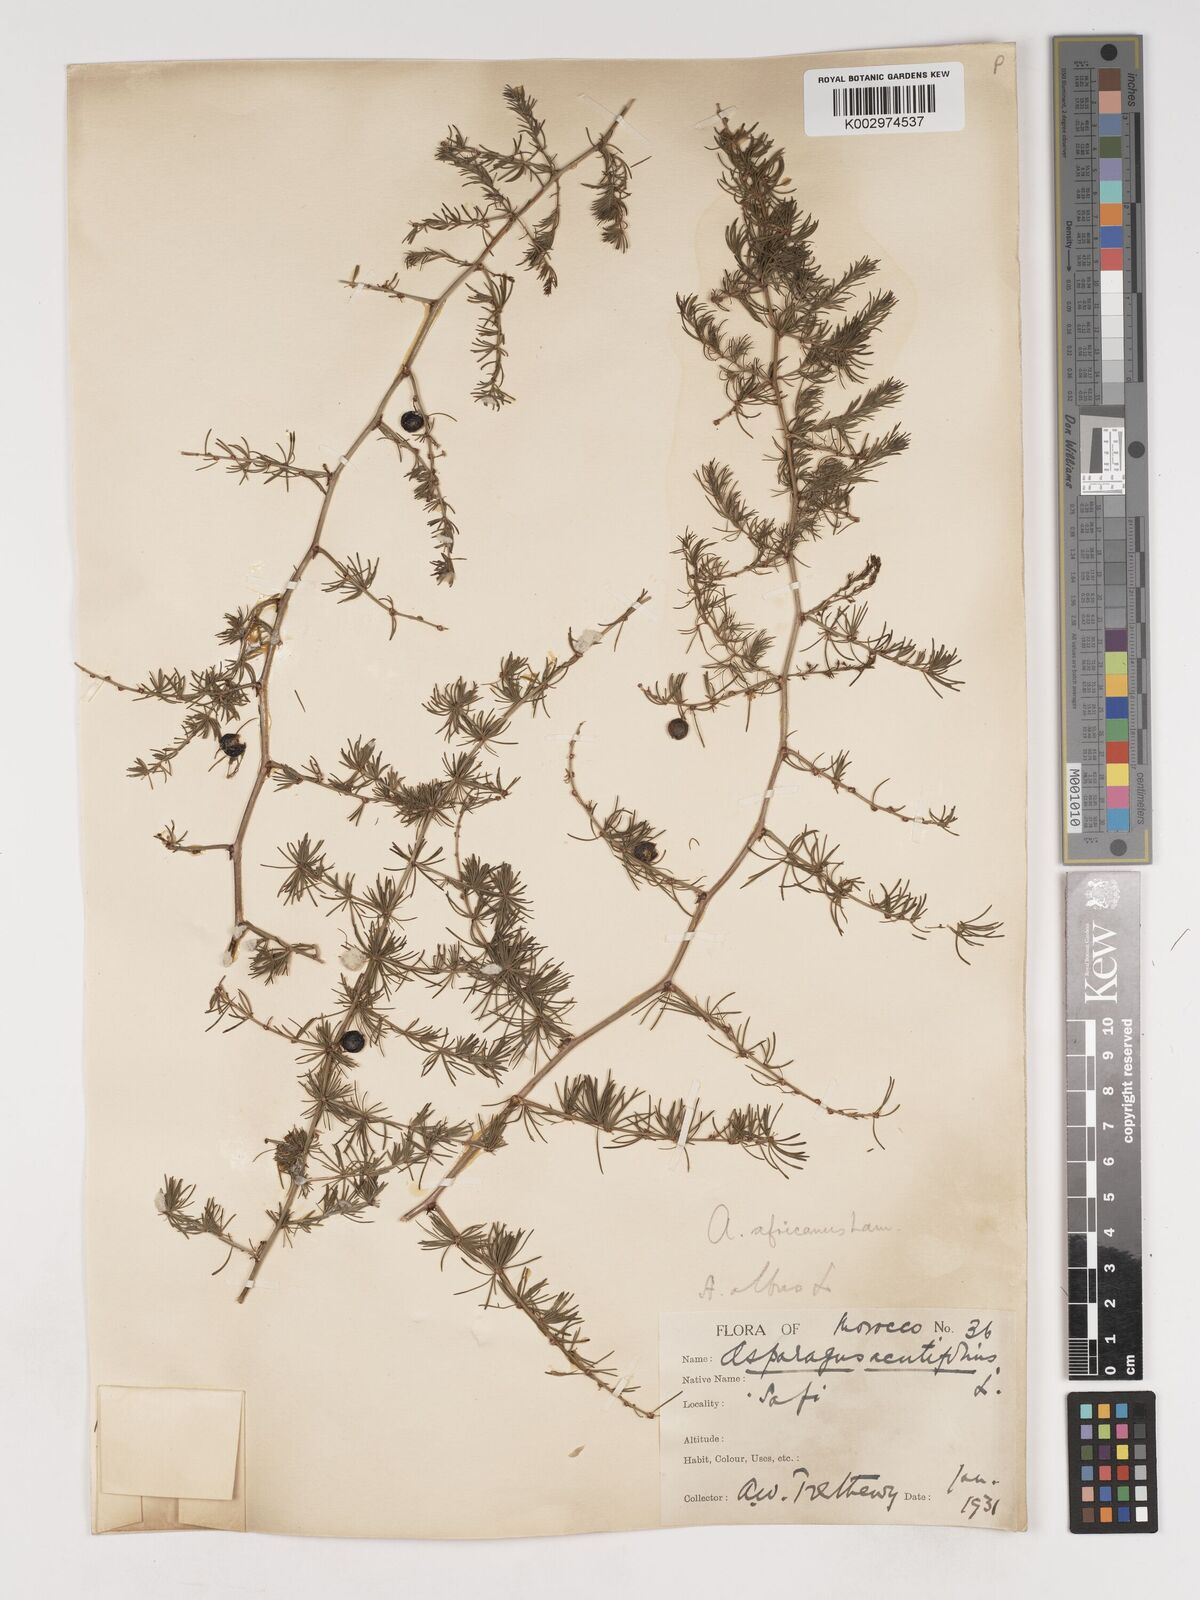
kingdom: Plantae
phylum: Tracheophyta
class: Liliopsida
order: Asparagales
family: Asparagaceae
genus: Asparagus
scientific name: Asparagus africanus
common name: Asparagus-fern
